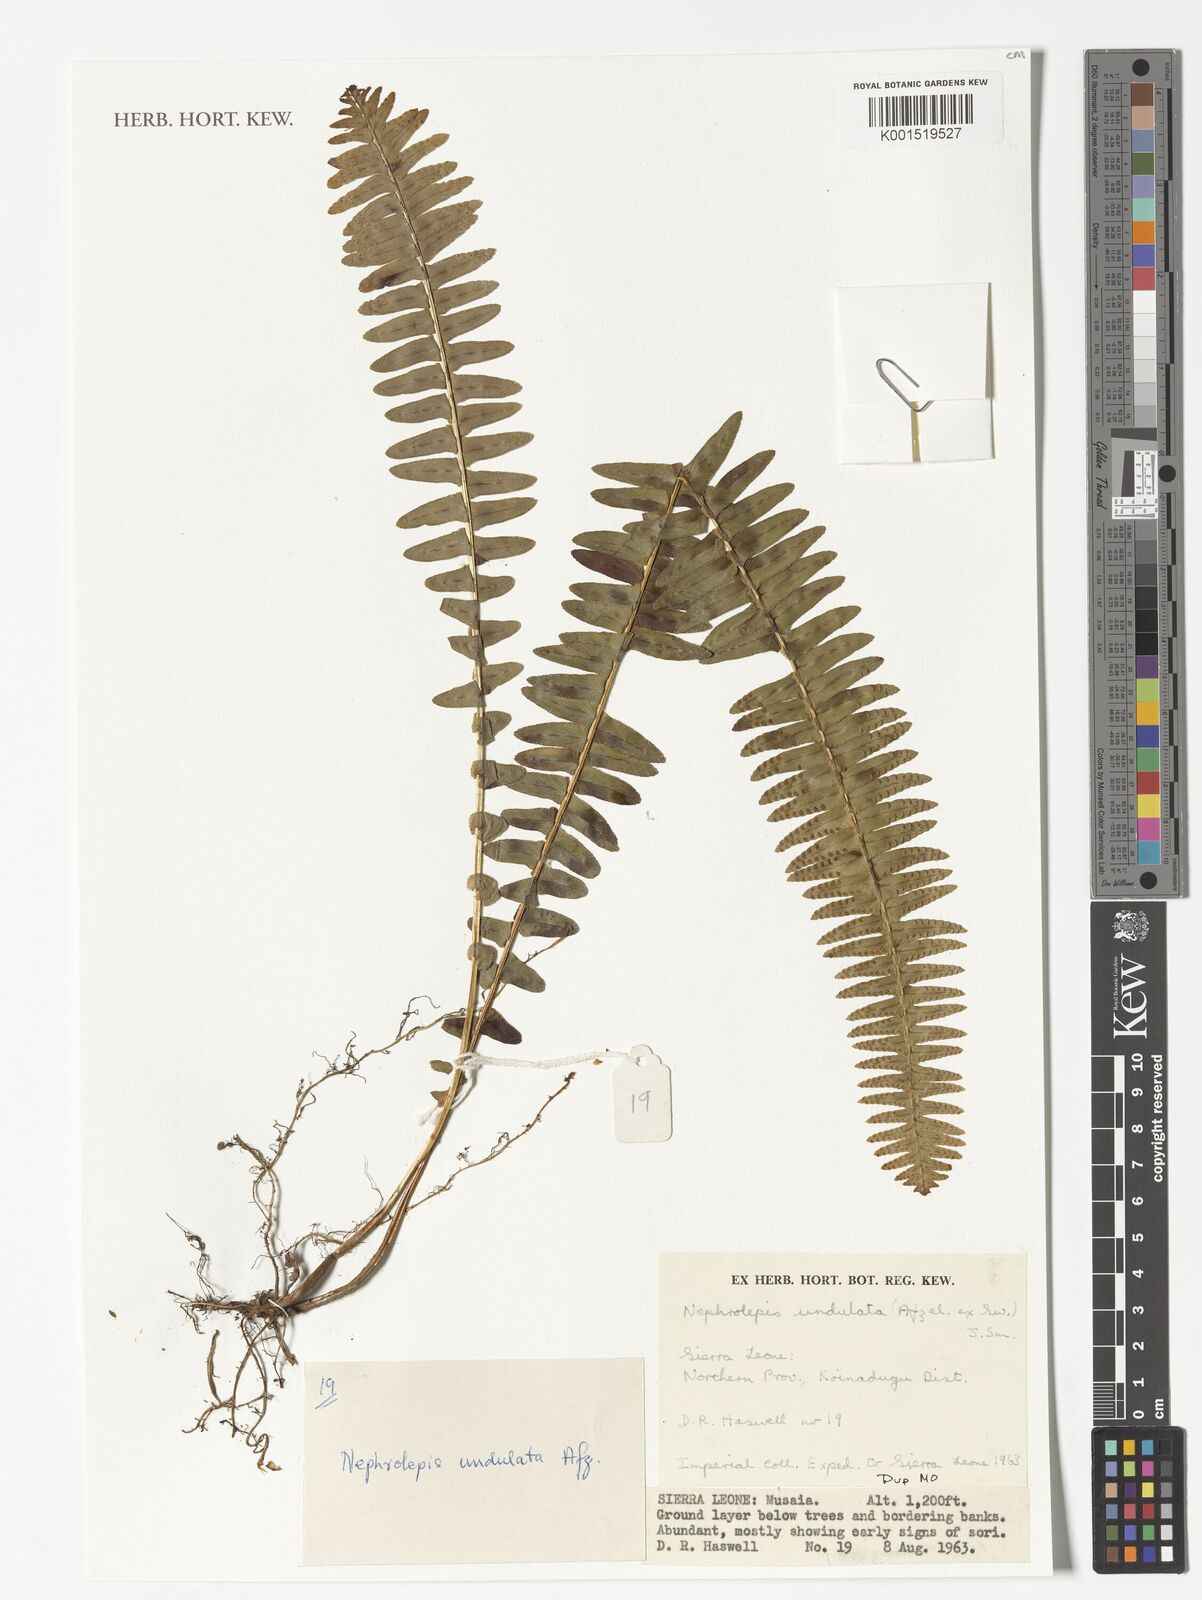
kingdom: Plantae
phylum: Tracheophyta
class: Polypodiopsida
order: Polypodiales
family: Nephrolepidaceae
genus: Nephrolepis
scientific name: Nephrolepis undulata
